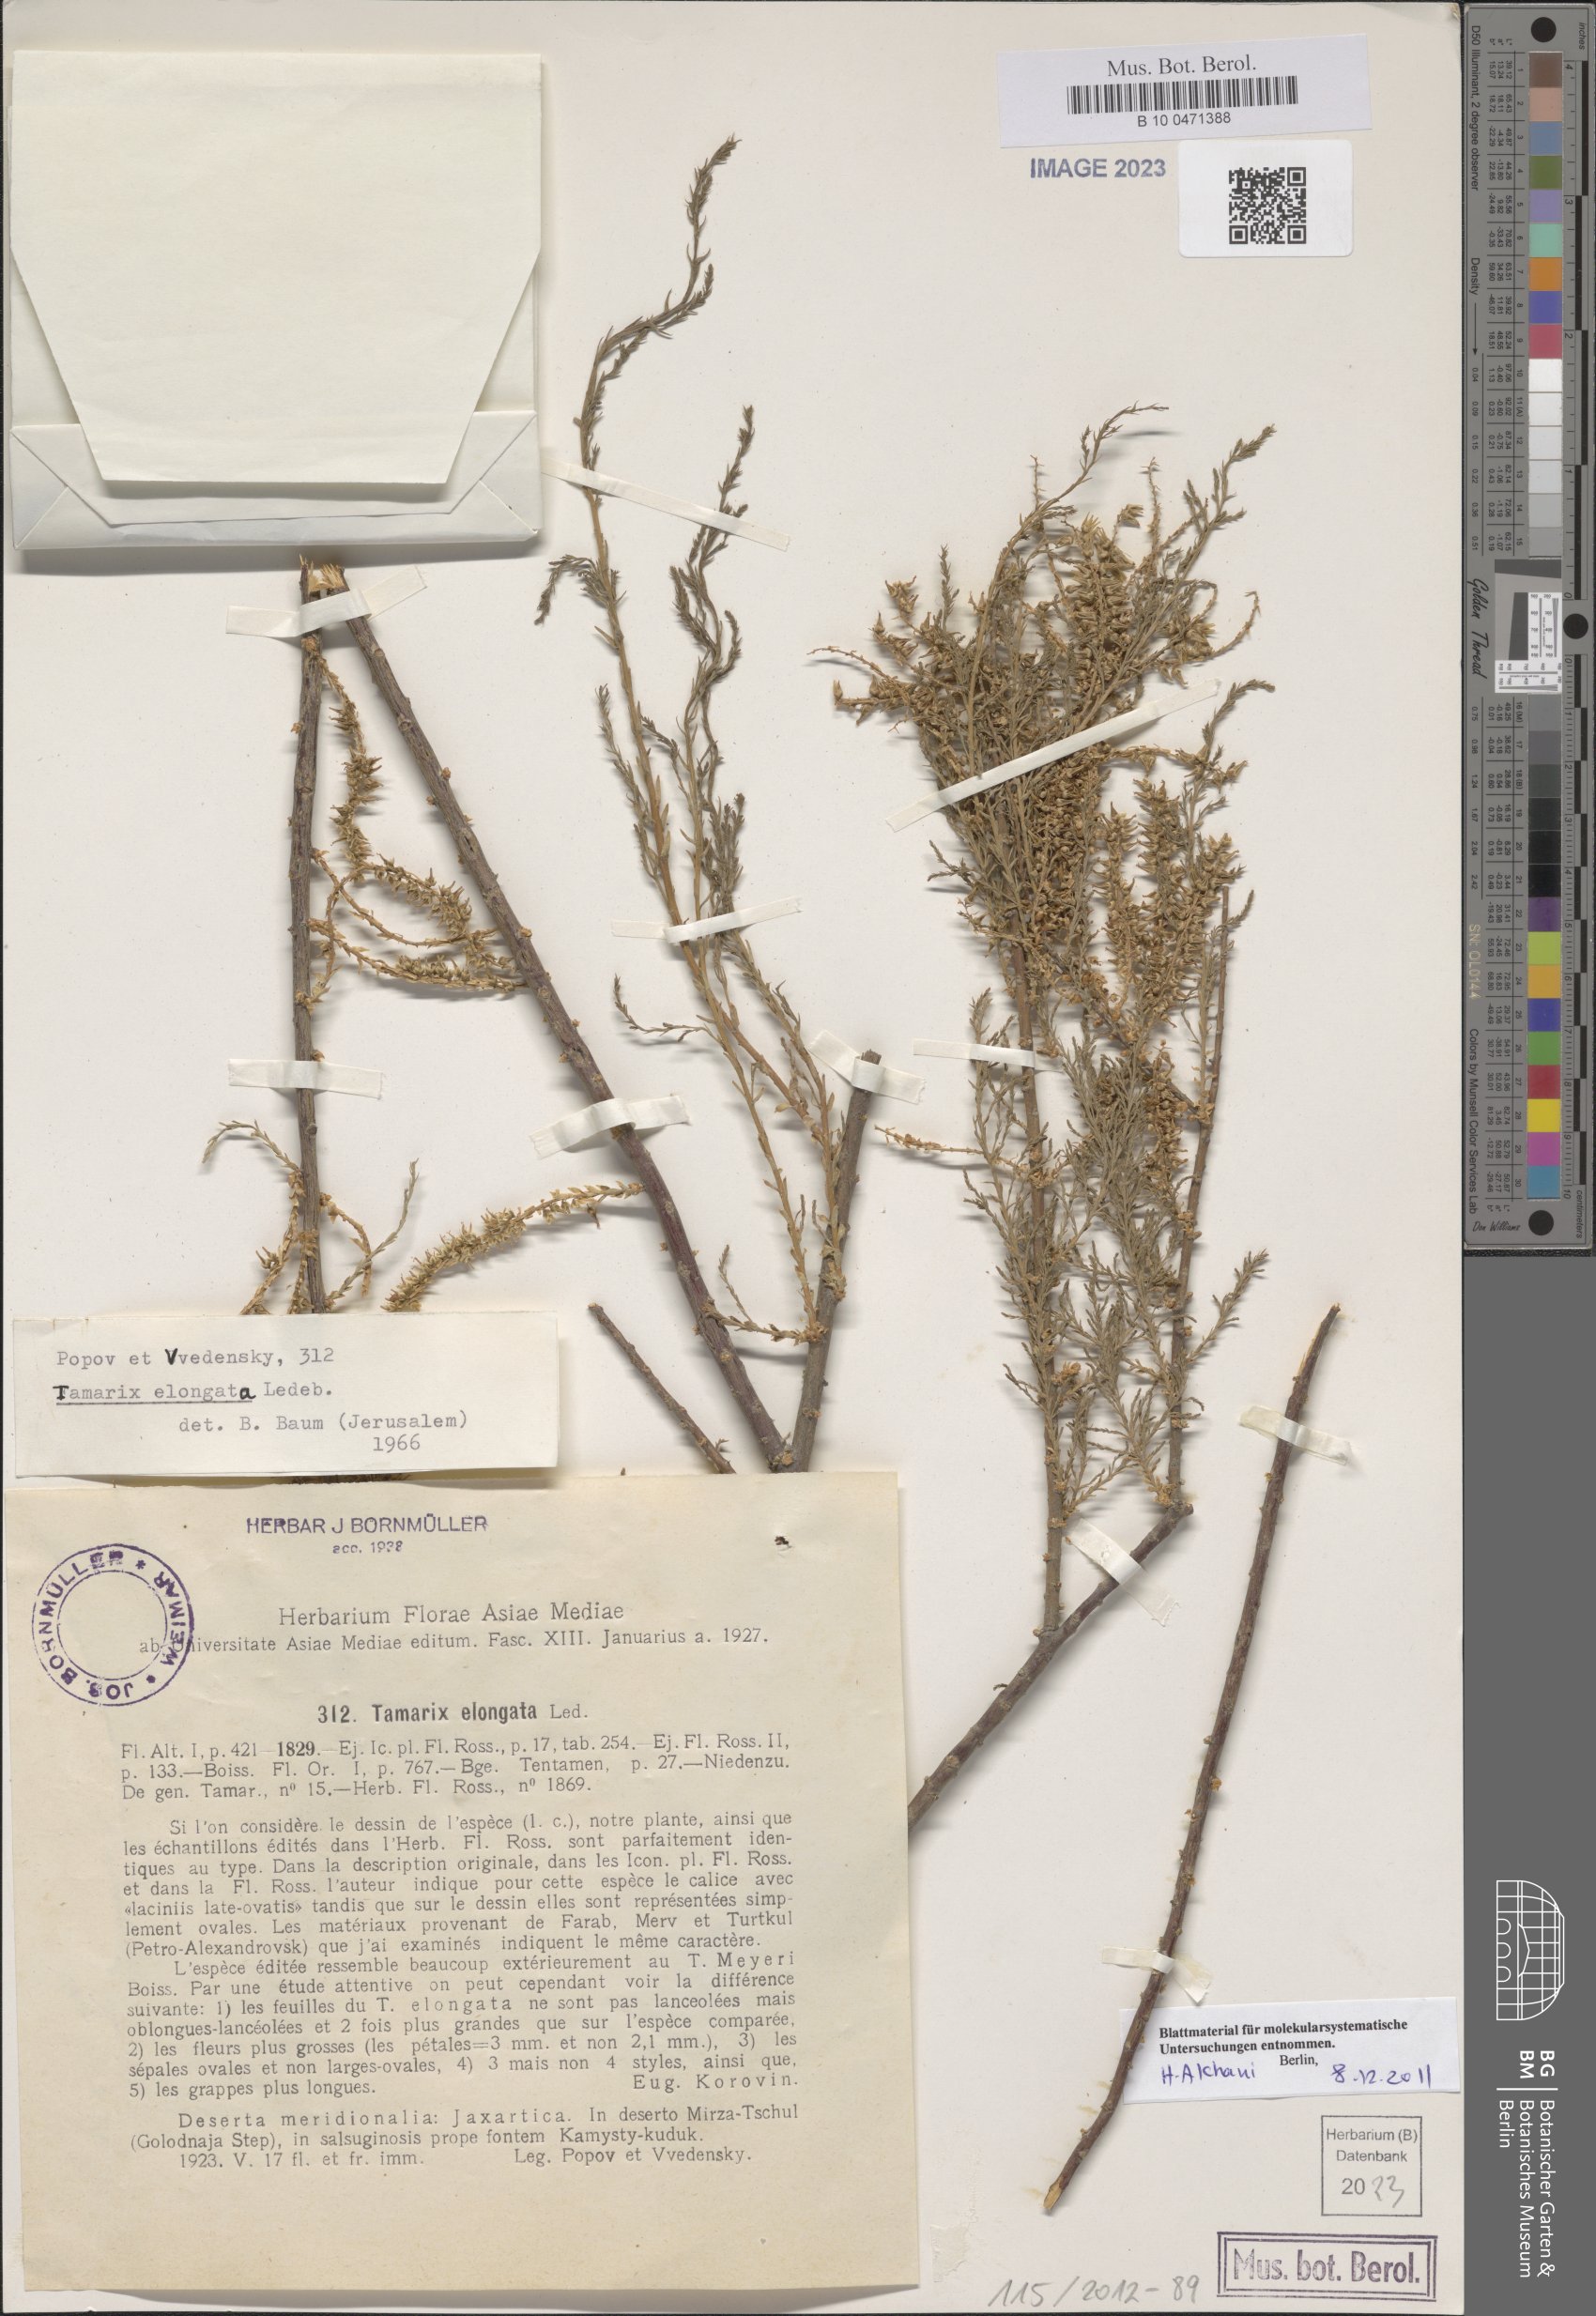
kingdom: Plantae
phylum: Tracheophyta
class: Magnoliopsida
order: Caryophyllales
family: Tamaricaceae
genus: Tamarix
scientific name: Tamarix elongata
